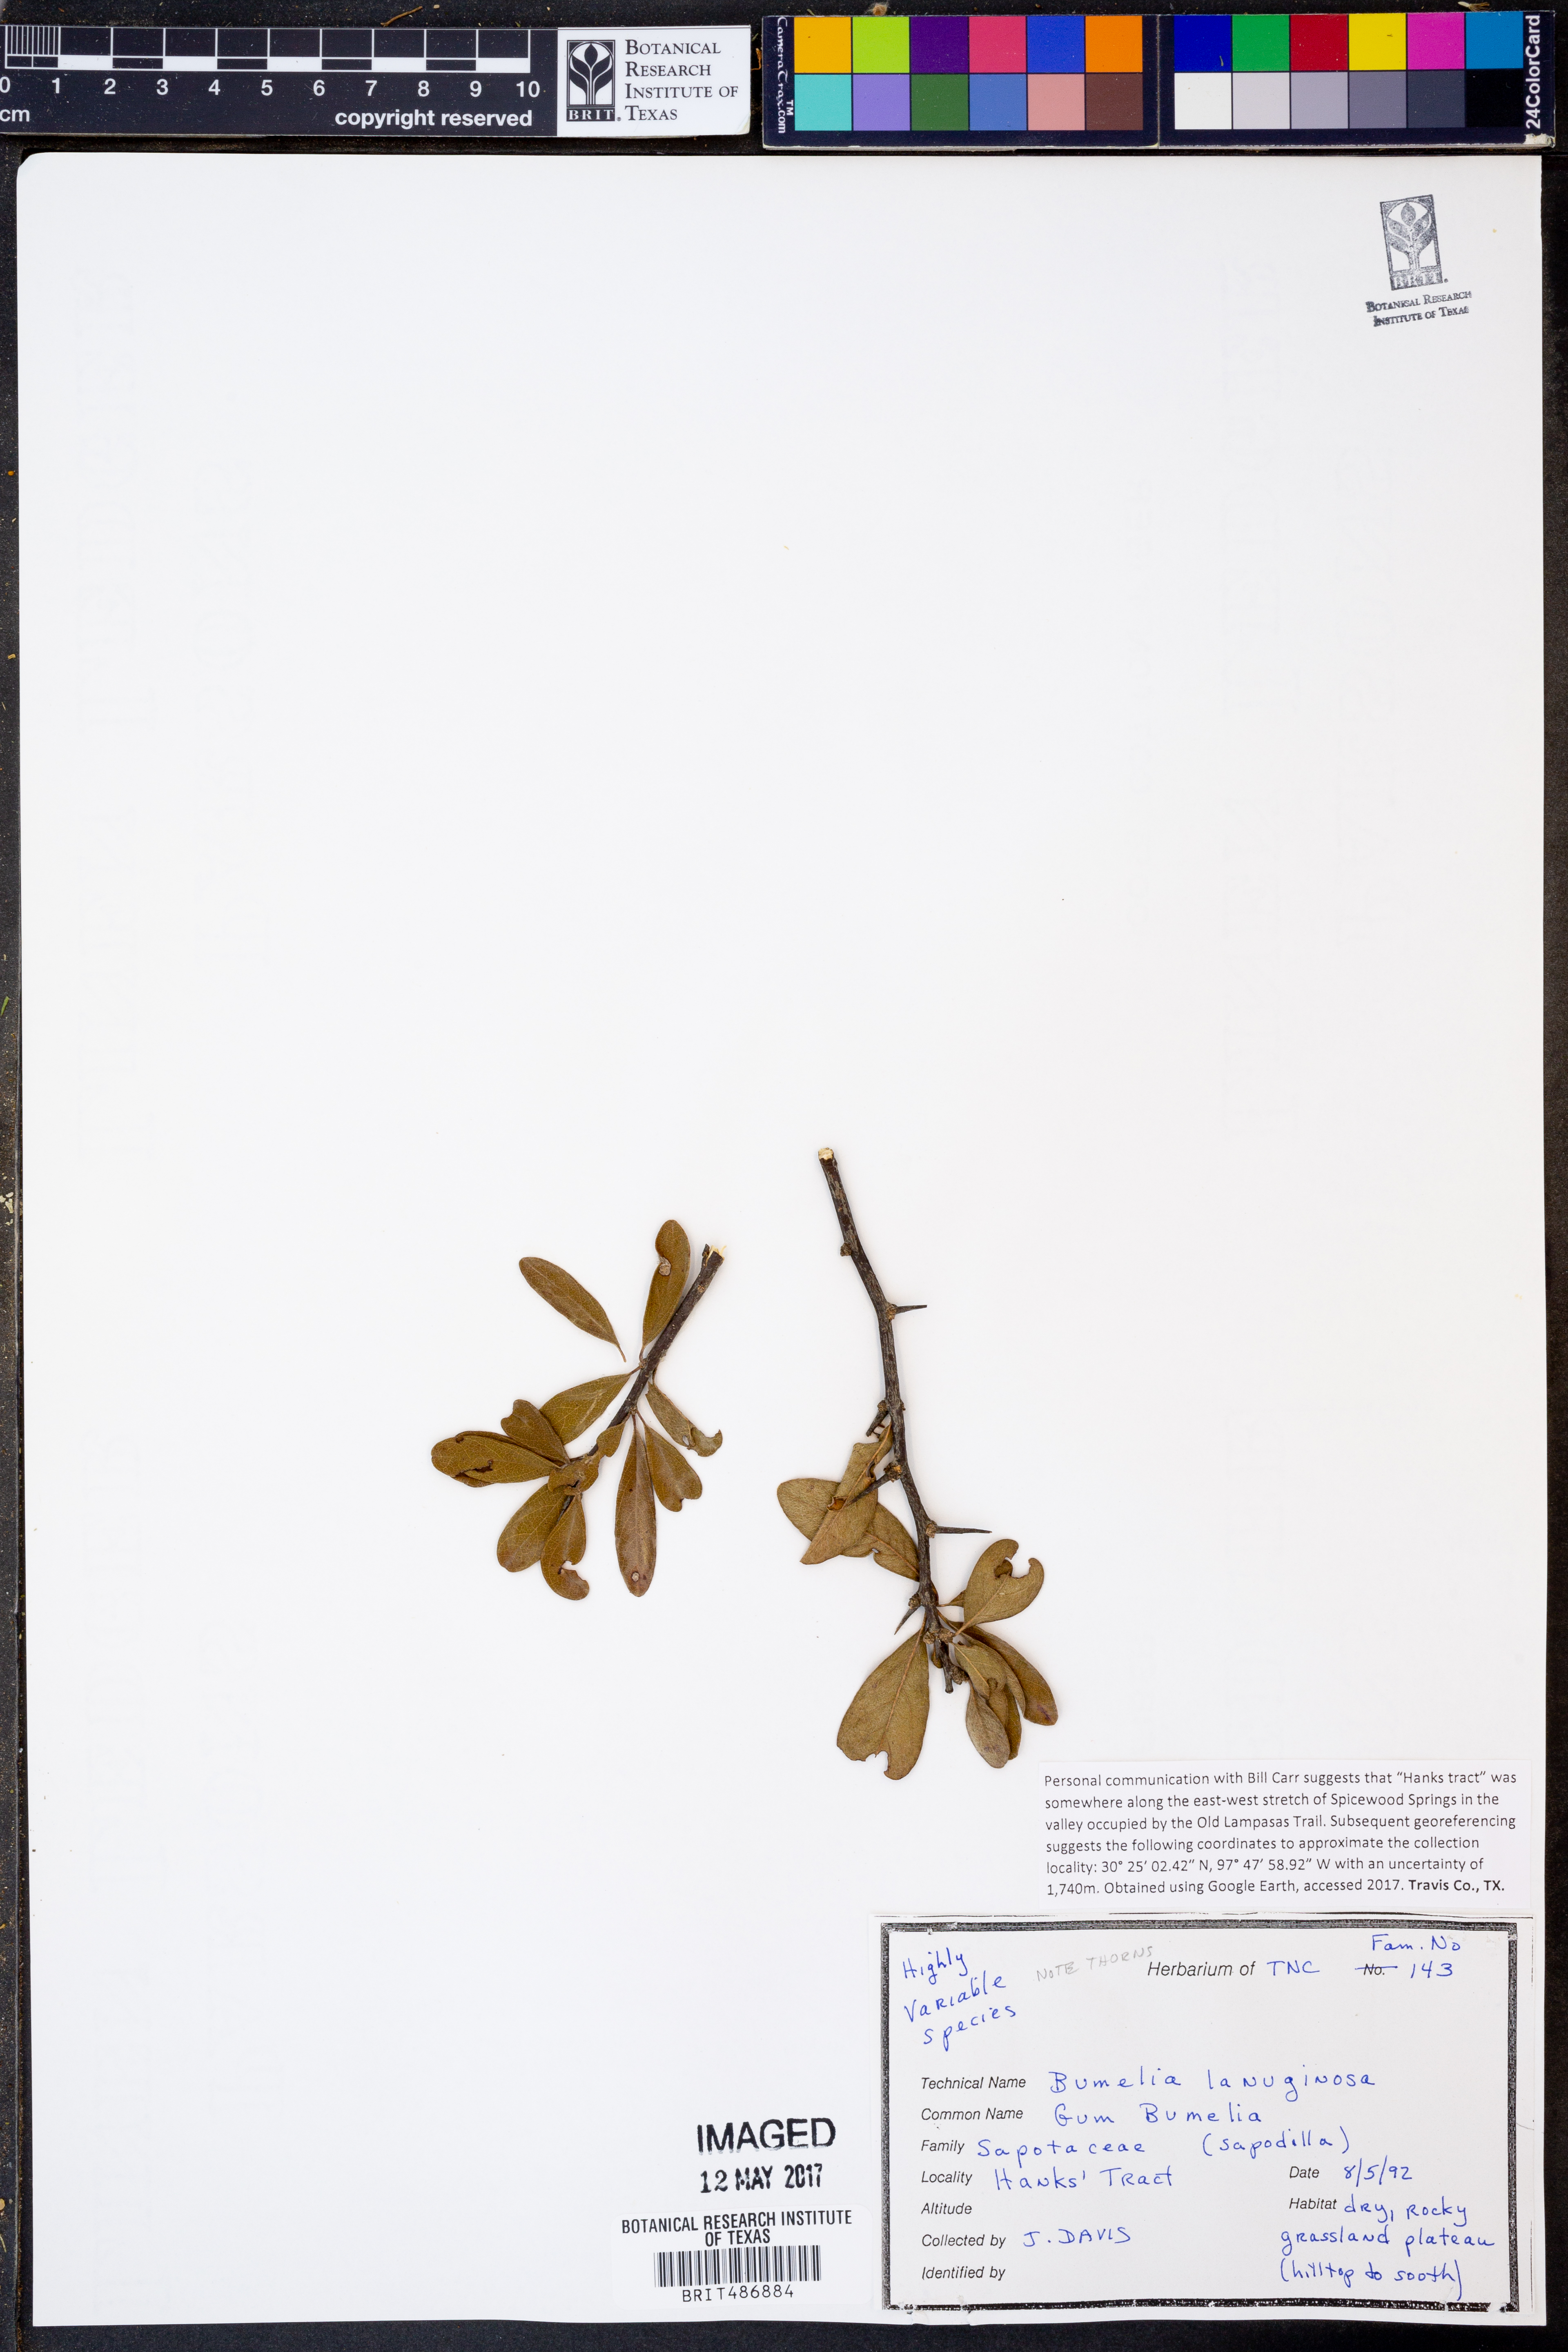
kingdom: Plantae
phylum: Tracheophyta
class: Magnoliopsida
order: Ericales
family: Sapotaceae
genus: Sideroxylon
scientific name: Sideroxylon lanuginosum
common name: Chittamwood
